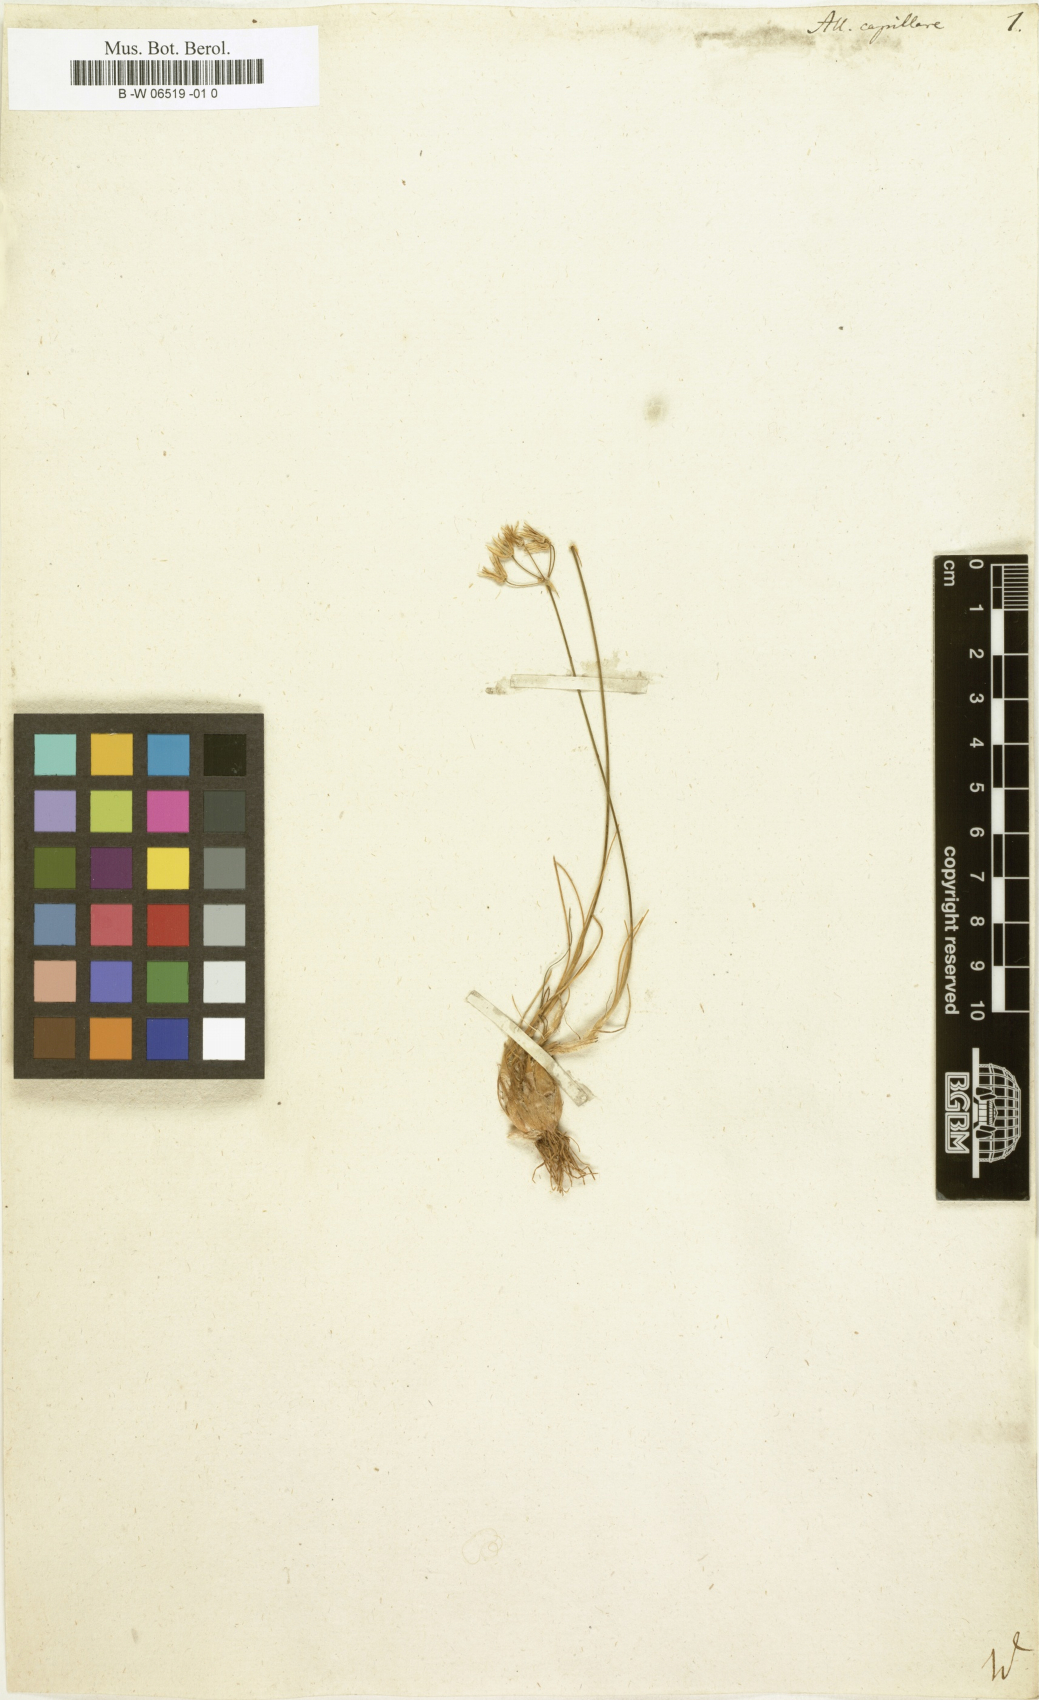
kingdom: Plantae
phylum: Tracheophyta
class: Liliopsida
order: Asparagales
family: Amaryllidaceae
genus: Allium
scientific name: Allium capillare
